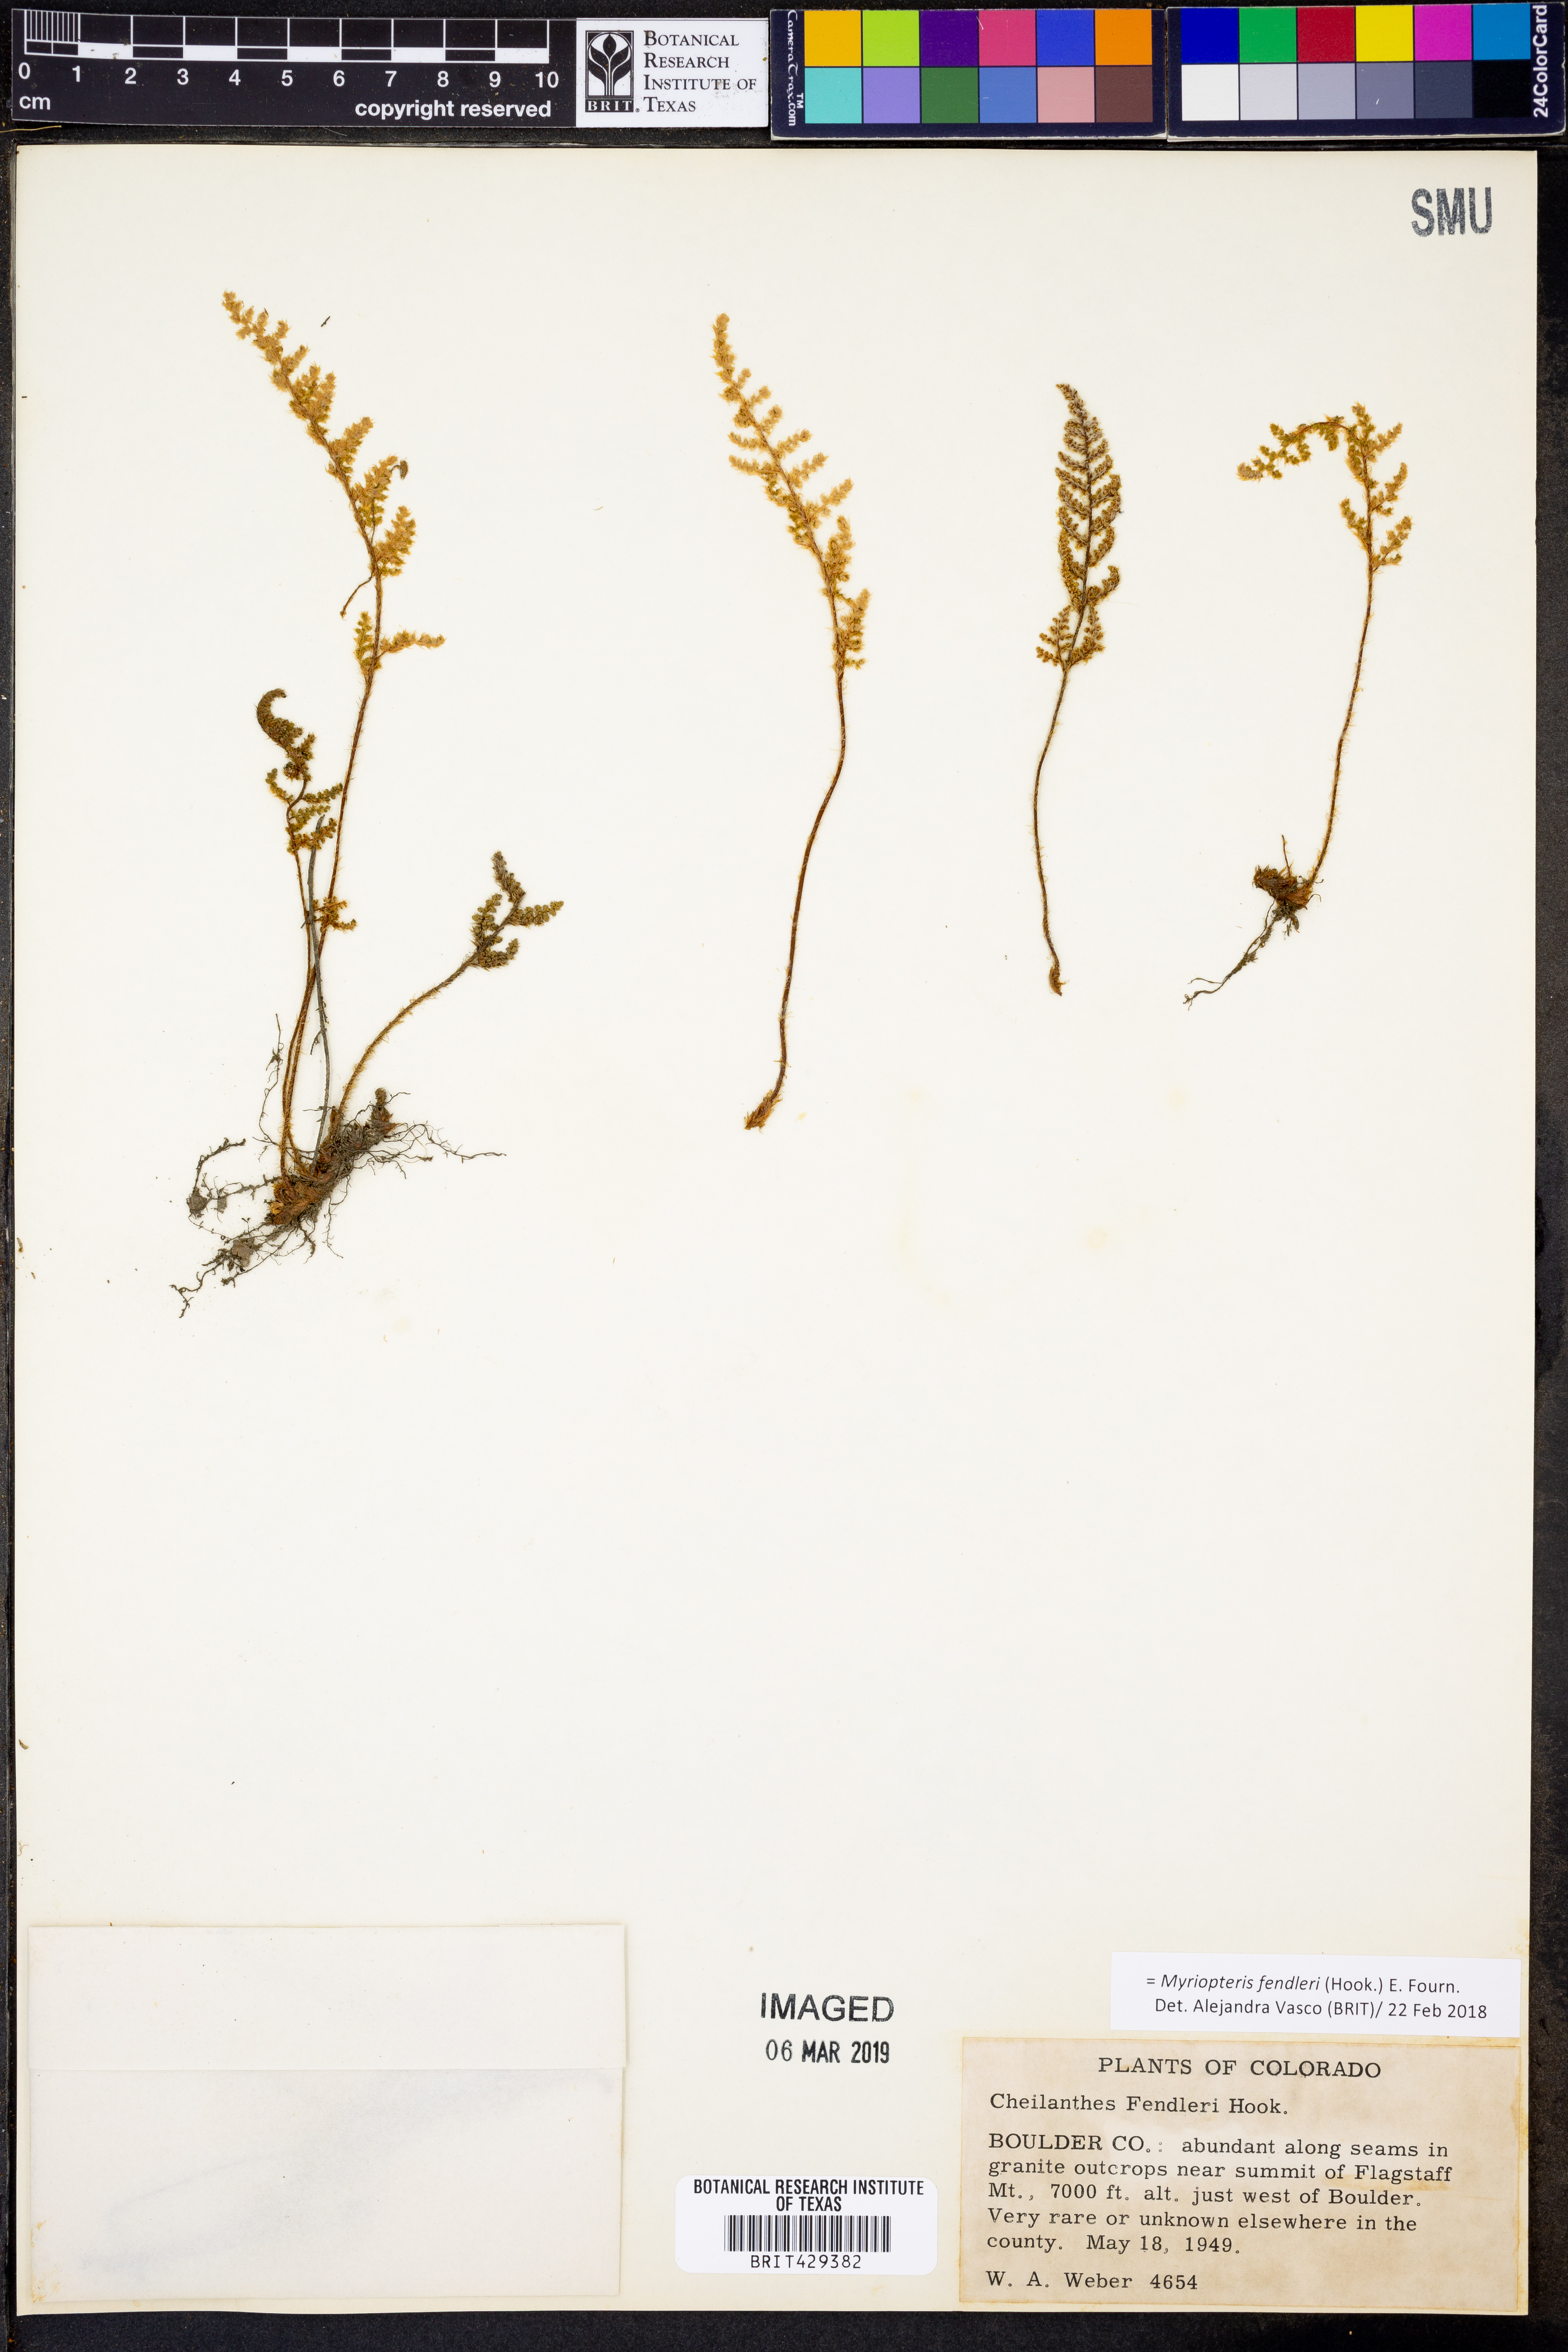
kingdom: Plantae
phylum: Tracheophyta
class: Polypodiopsida
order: Polypodiales
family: Pteridaceae
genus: Myriopteris
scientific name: Myriopteris fendleri
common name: Fendler's lip fern
